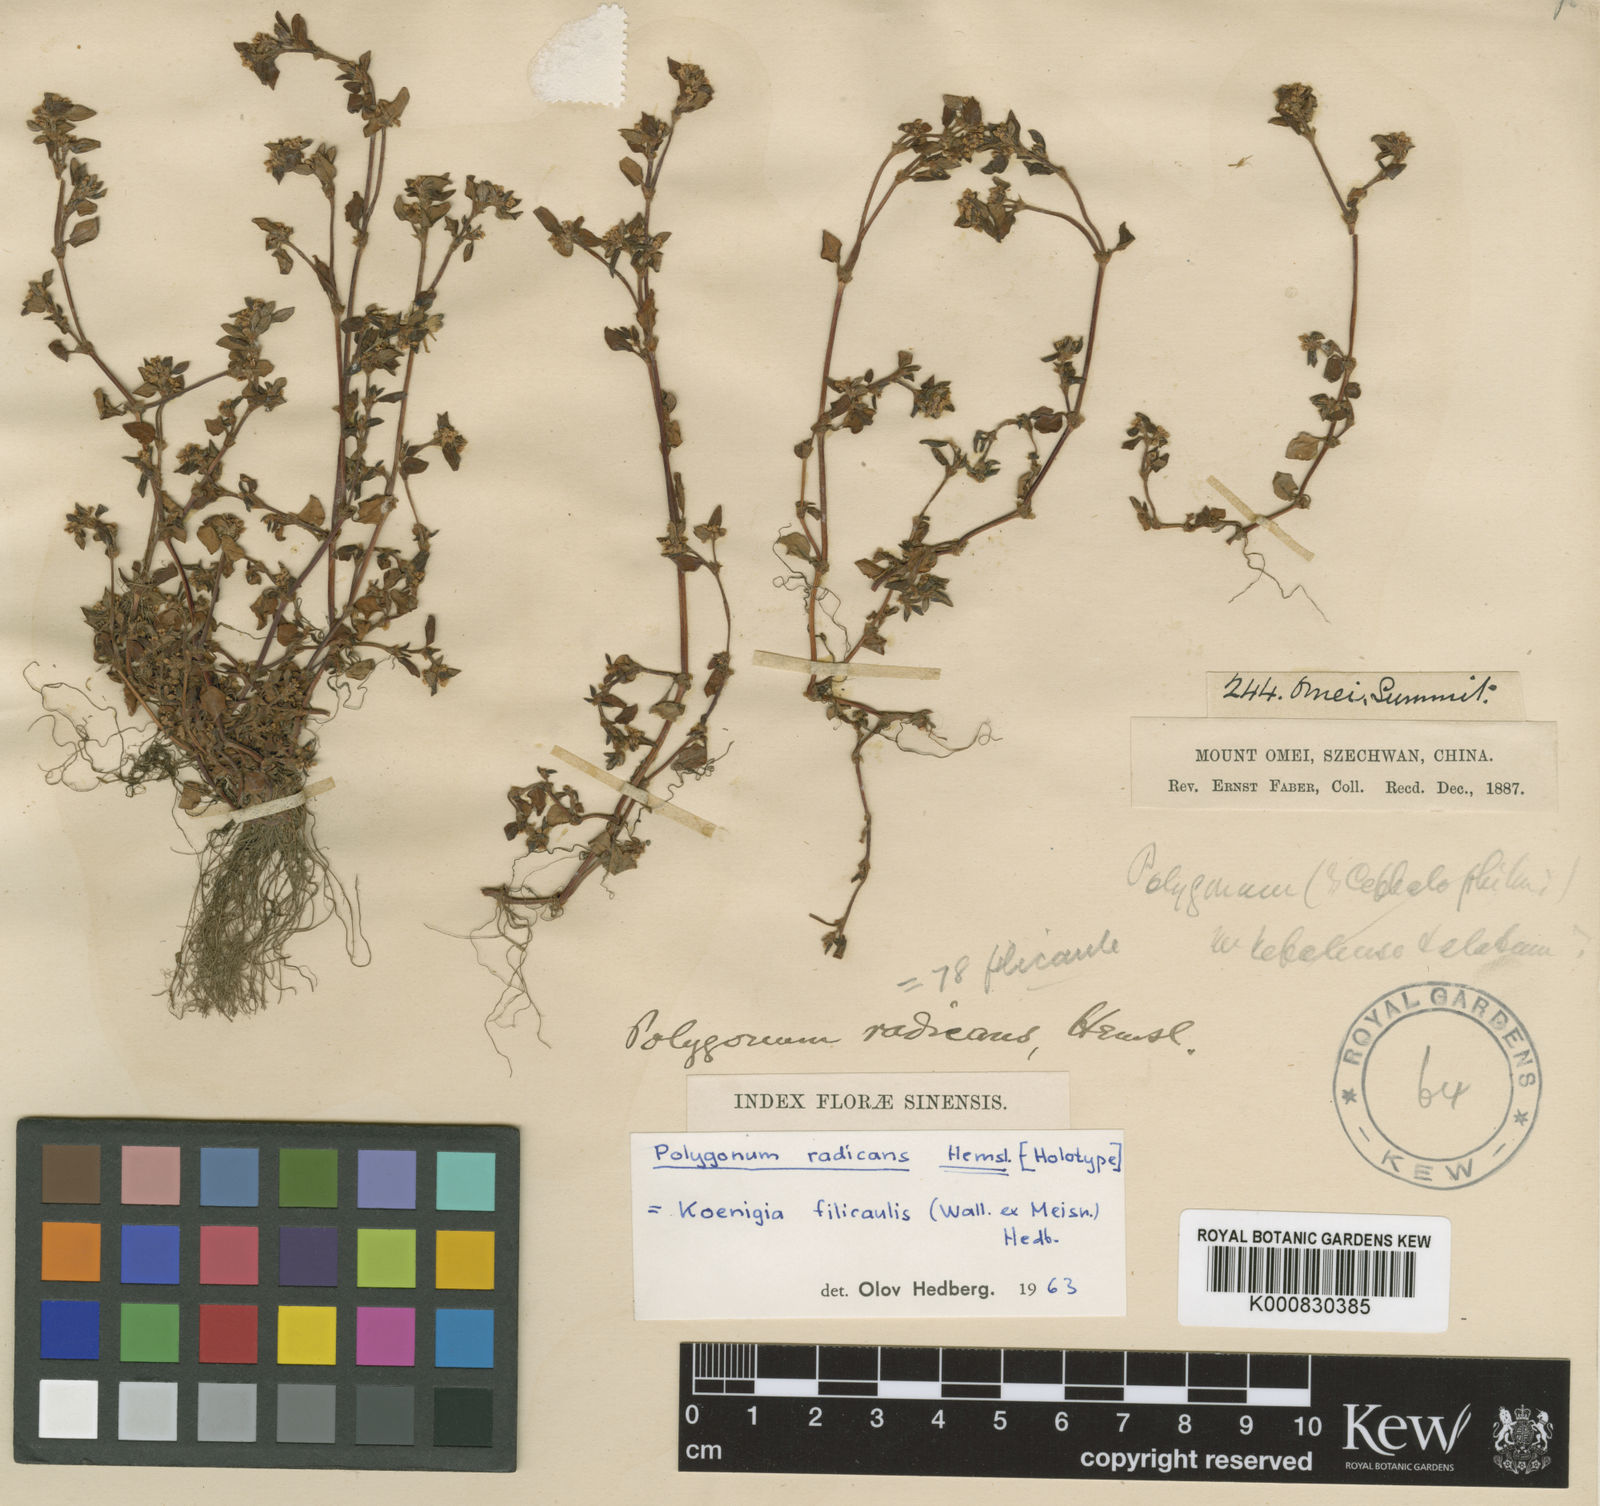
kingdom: Plantae
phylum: Tracheophyta
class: Magnoliopsida
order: Caryophyllales
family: Polygonaceae
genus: Koenigia
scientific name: Koenigia filicaulis
